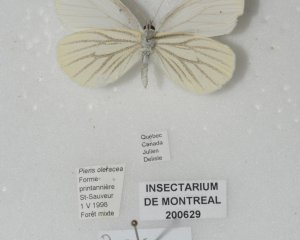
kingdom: Animalia
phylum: Arthropoda
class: Insecta
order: Lepidoptera
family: Pieridae
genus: Pieris
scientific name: Pieris oleracea
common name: Mustard White
